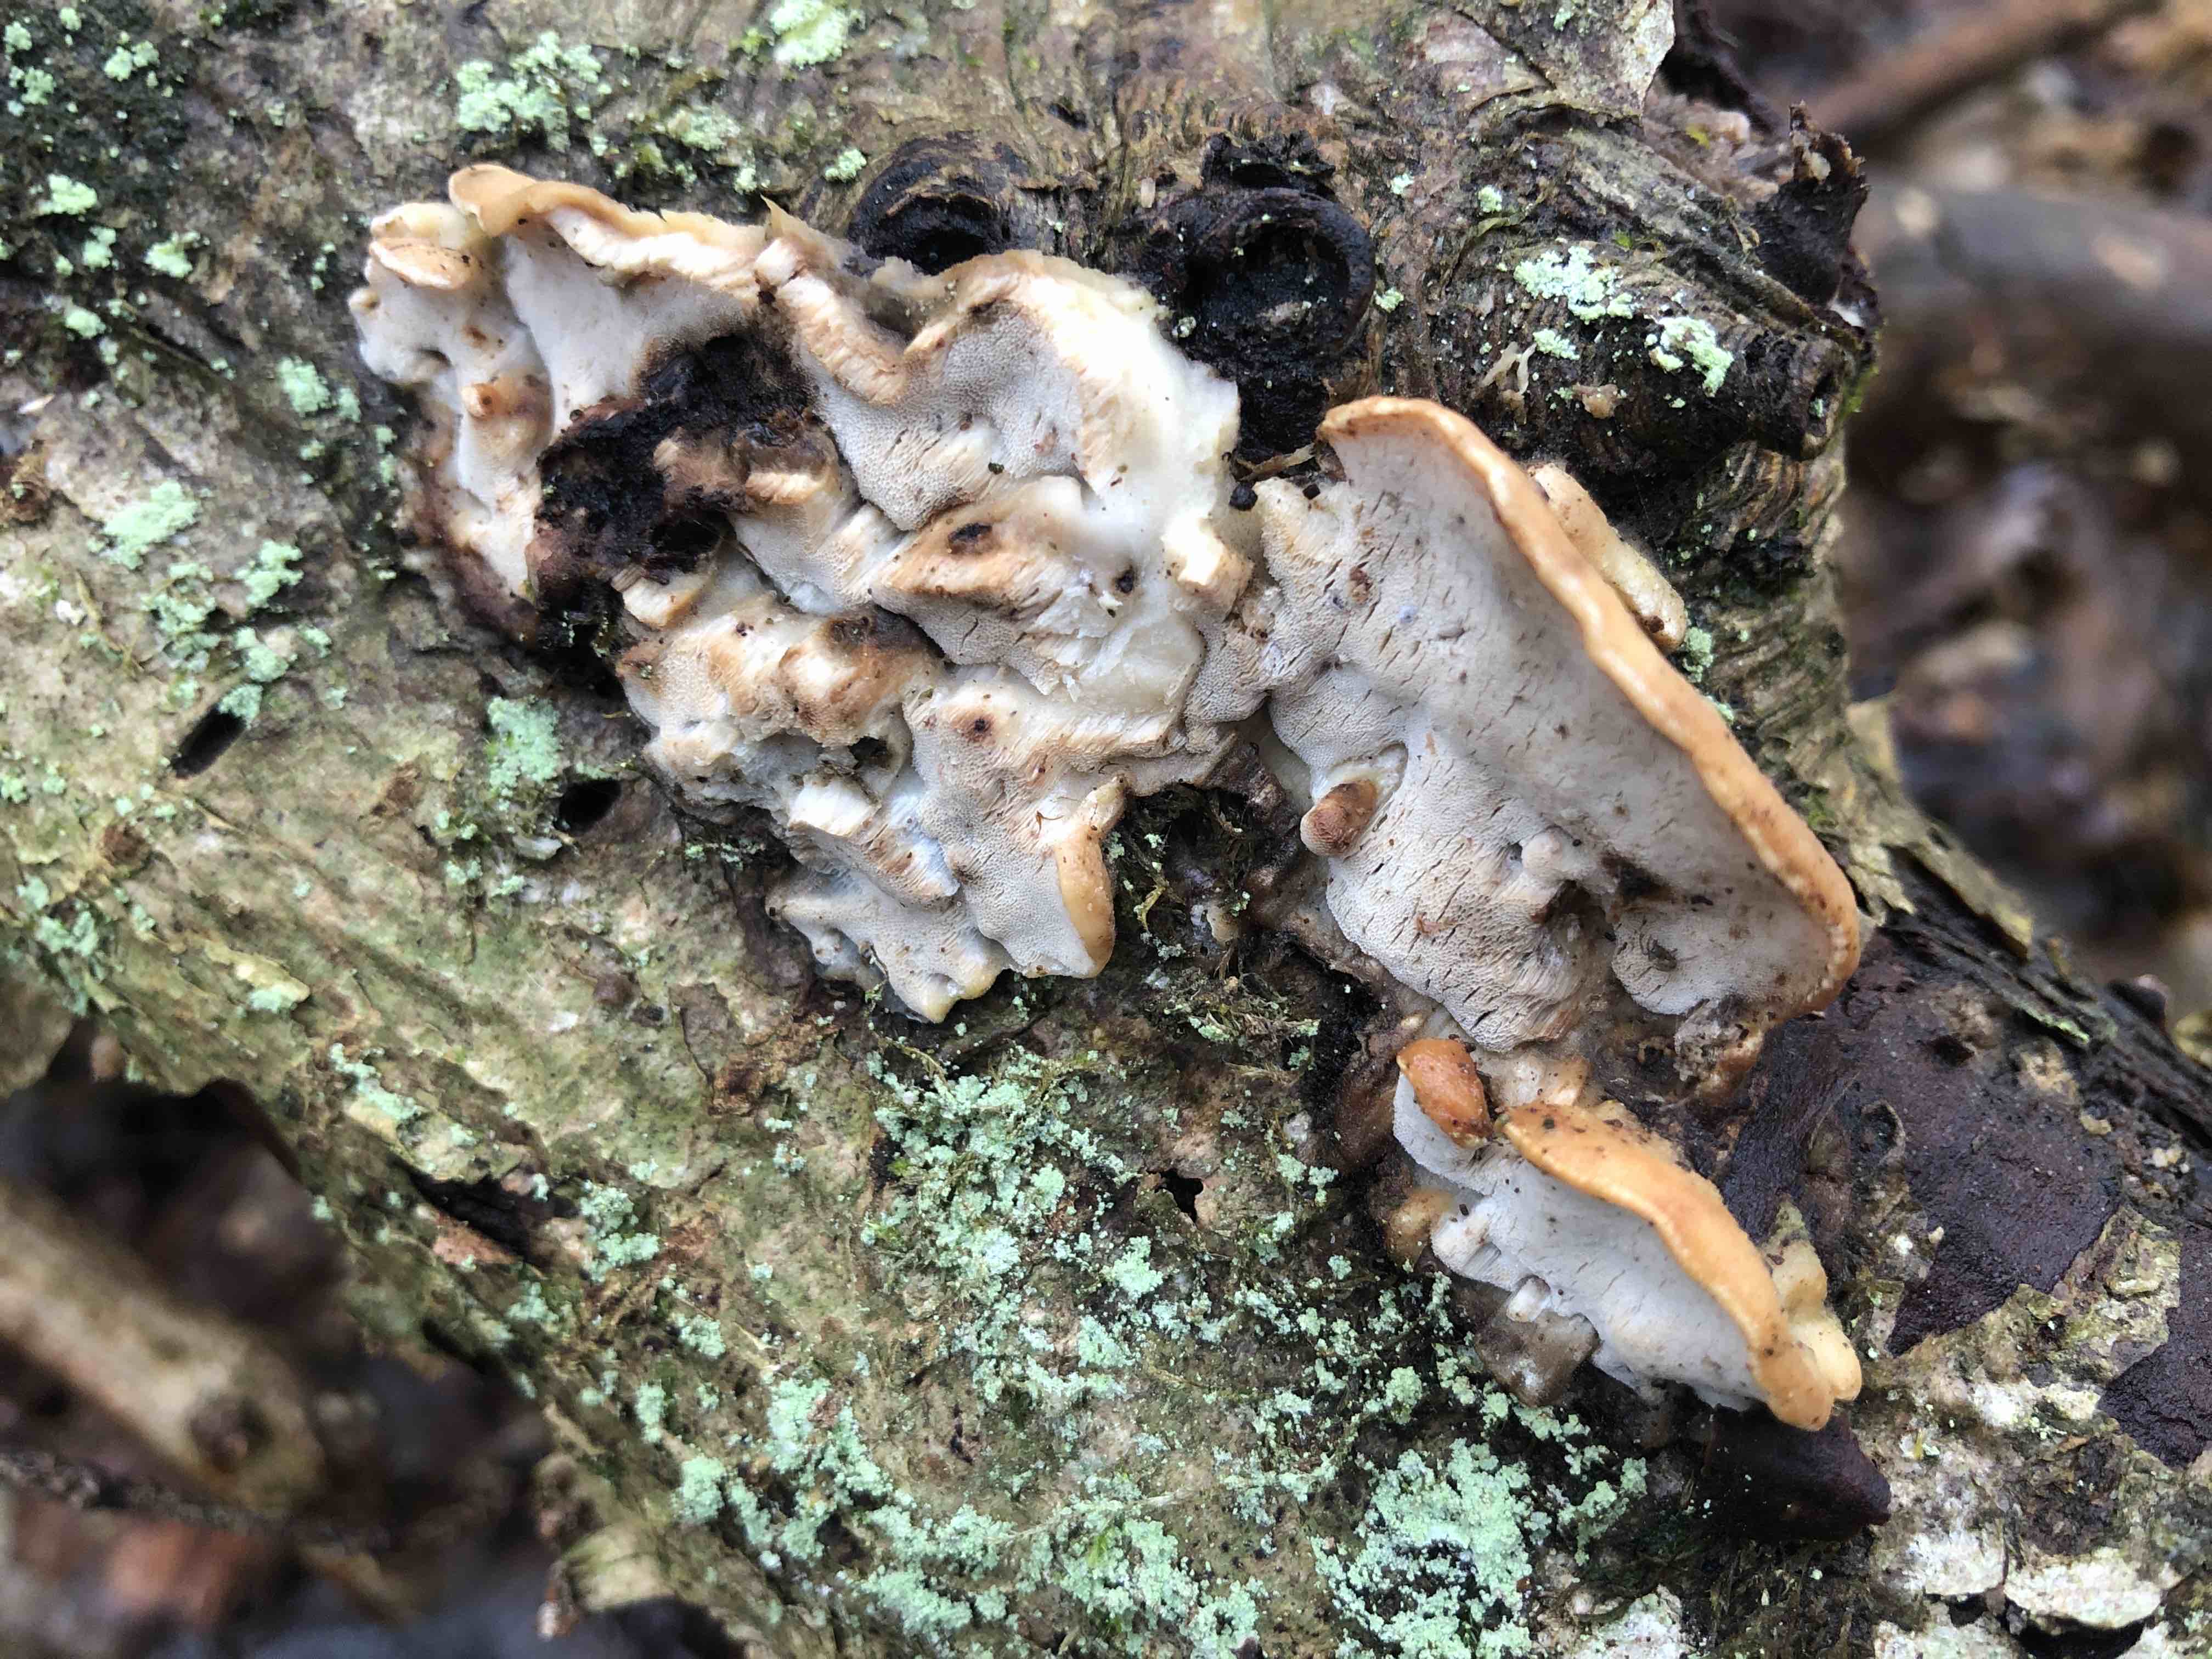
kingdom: Fungi
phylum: Basidiomycota
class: Agaricomycetes
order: Polyporales
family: Incrustoporiaceae
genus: Skeletocutis
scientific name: Skeletocutis nemoralis
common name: stor krystalporesvamp
